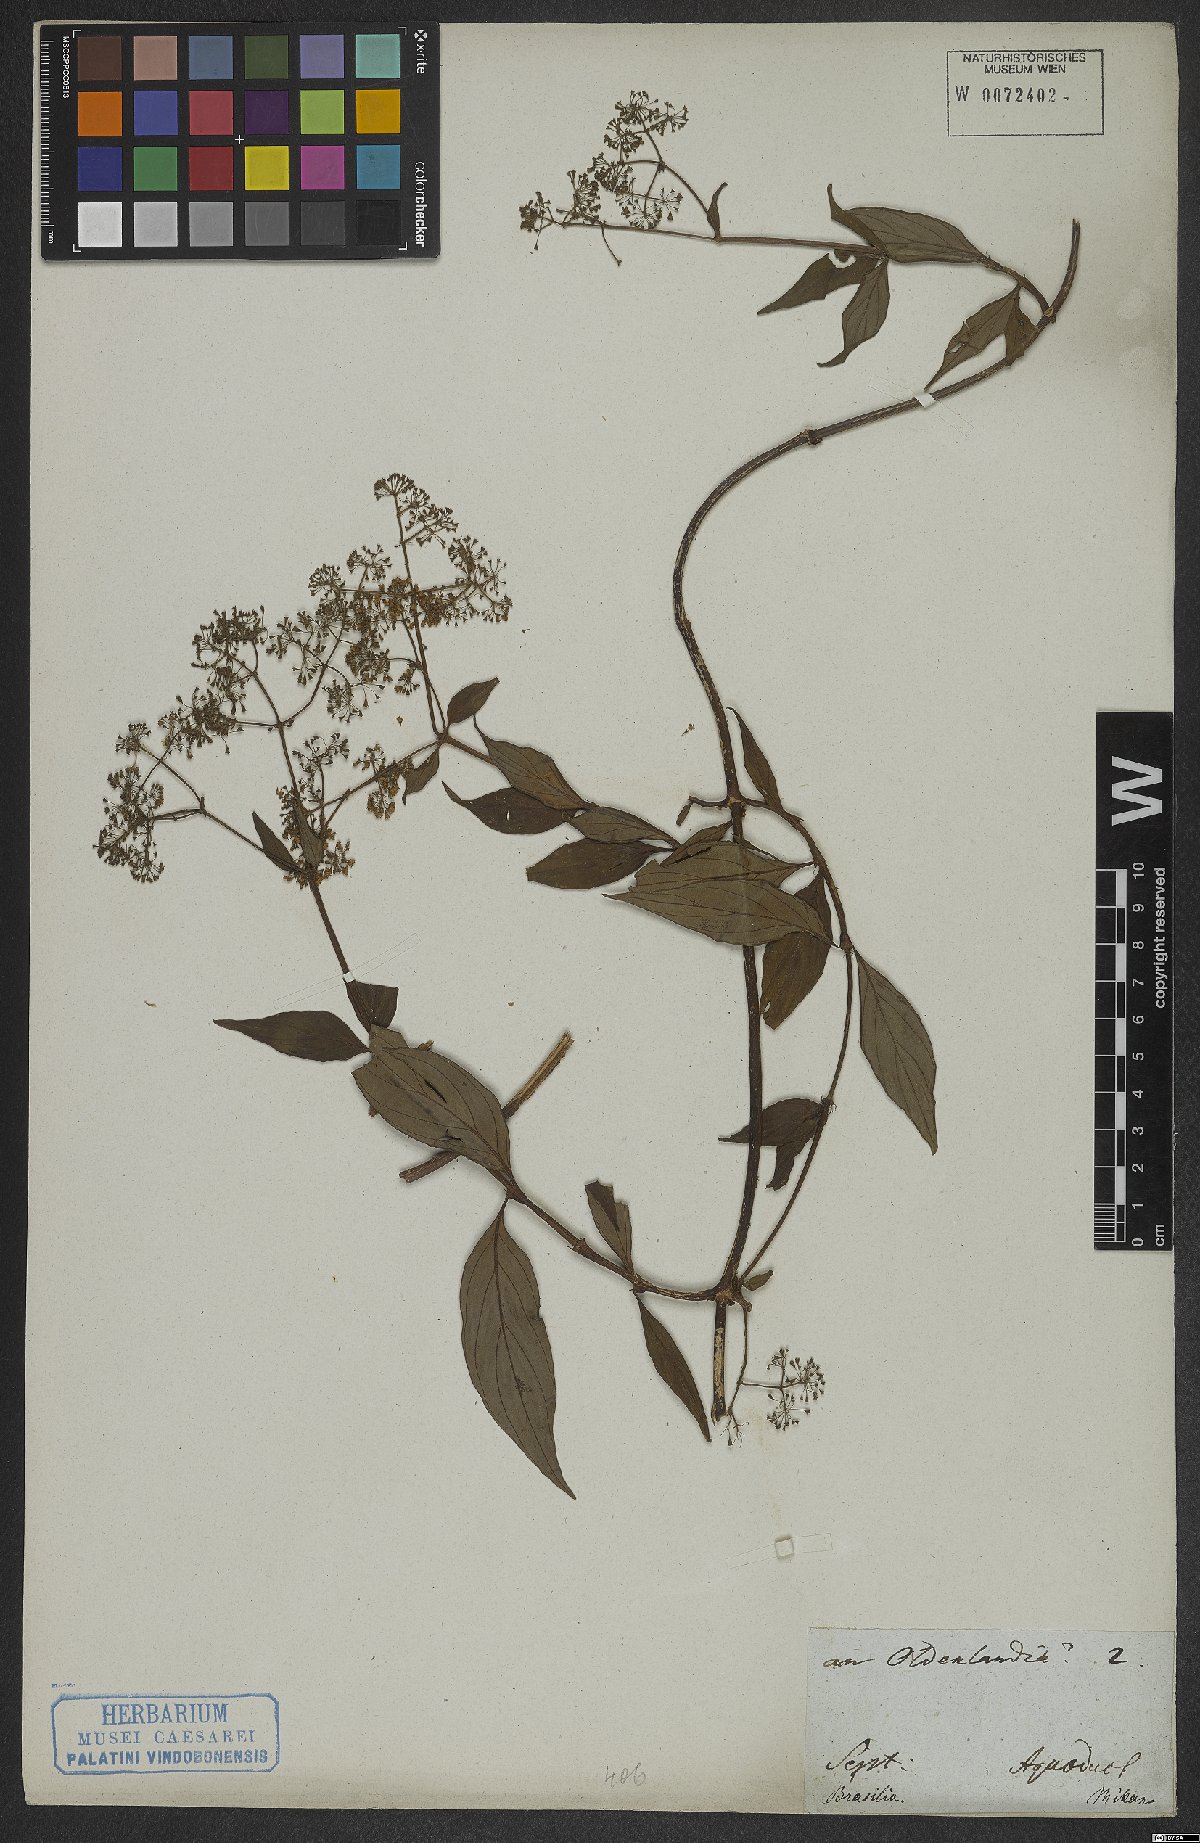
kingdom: Plantae
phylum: Tracheophyta
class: Magnoliopsida
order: Gentianales
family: Rubiaceae
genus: Oldenlandia
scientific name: Oldenlandia
